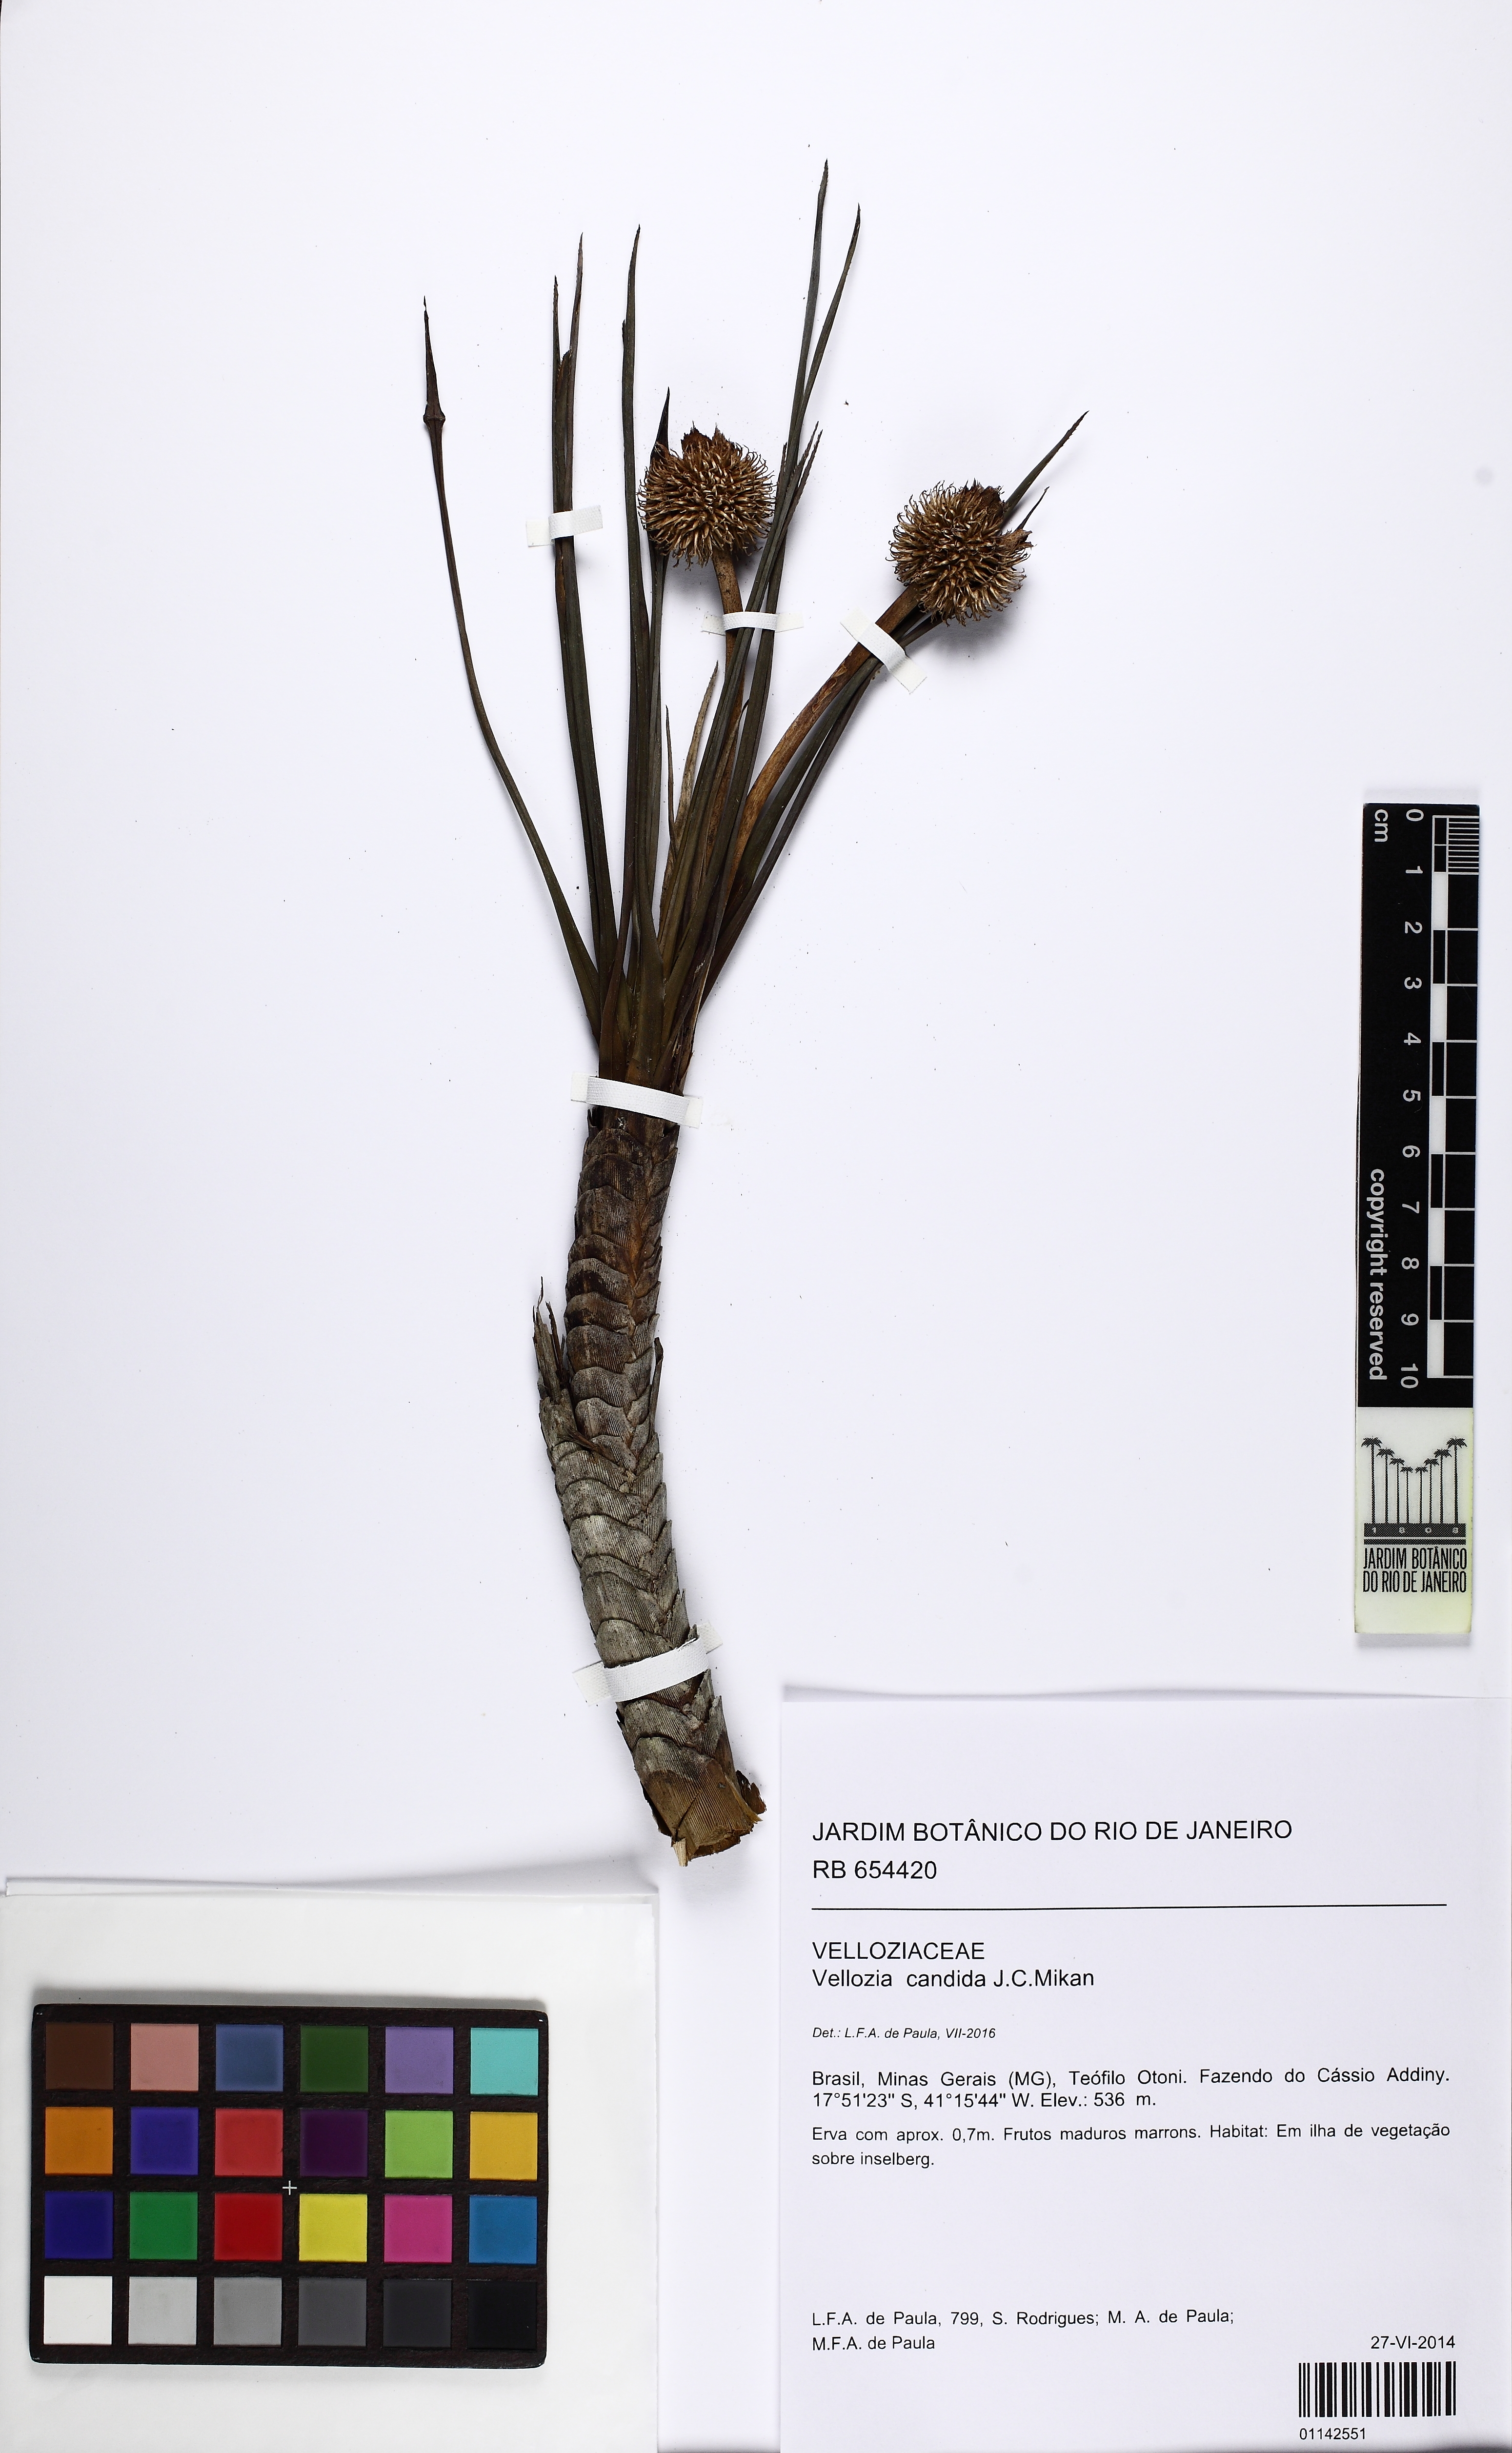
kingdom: Plantae
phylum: Tracheophyta
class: Liliopsida
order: Pandanales
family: Velloziaceae
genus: Vellozia
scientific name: Vellozia pulchra
